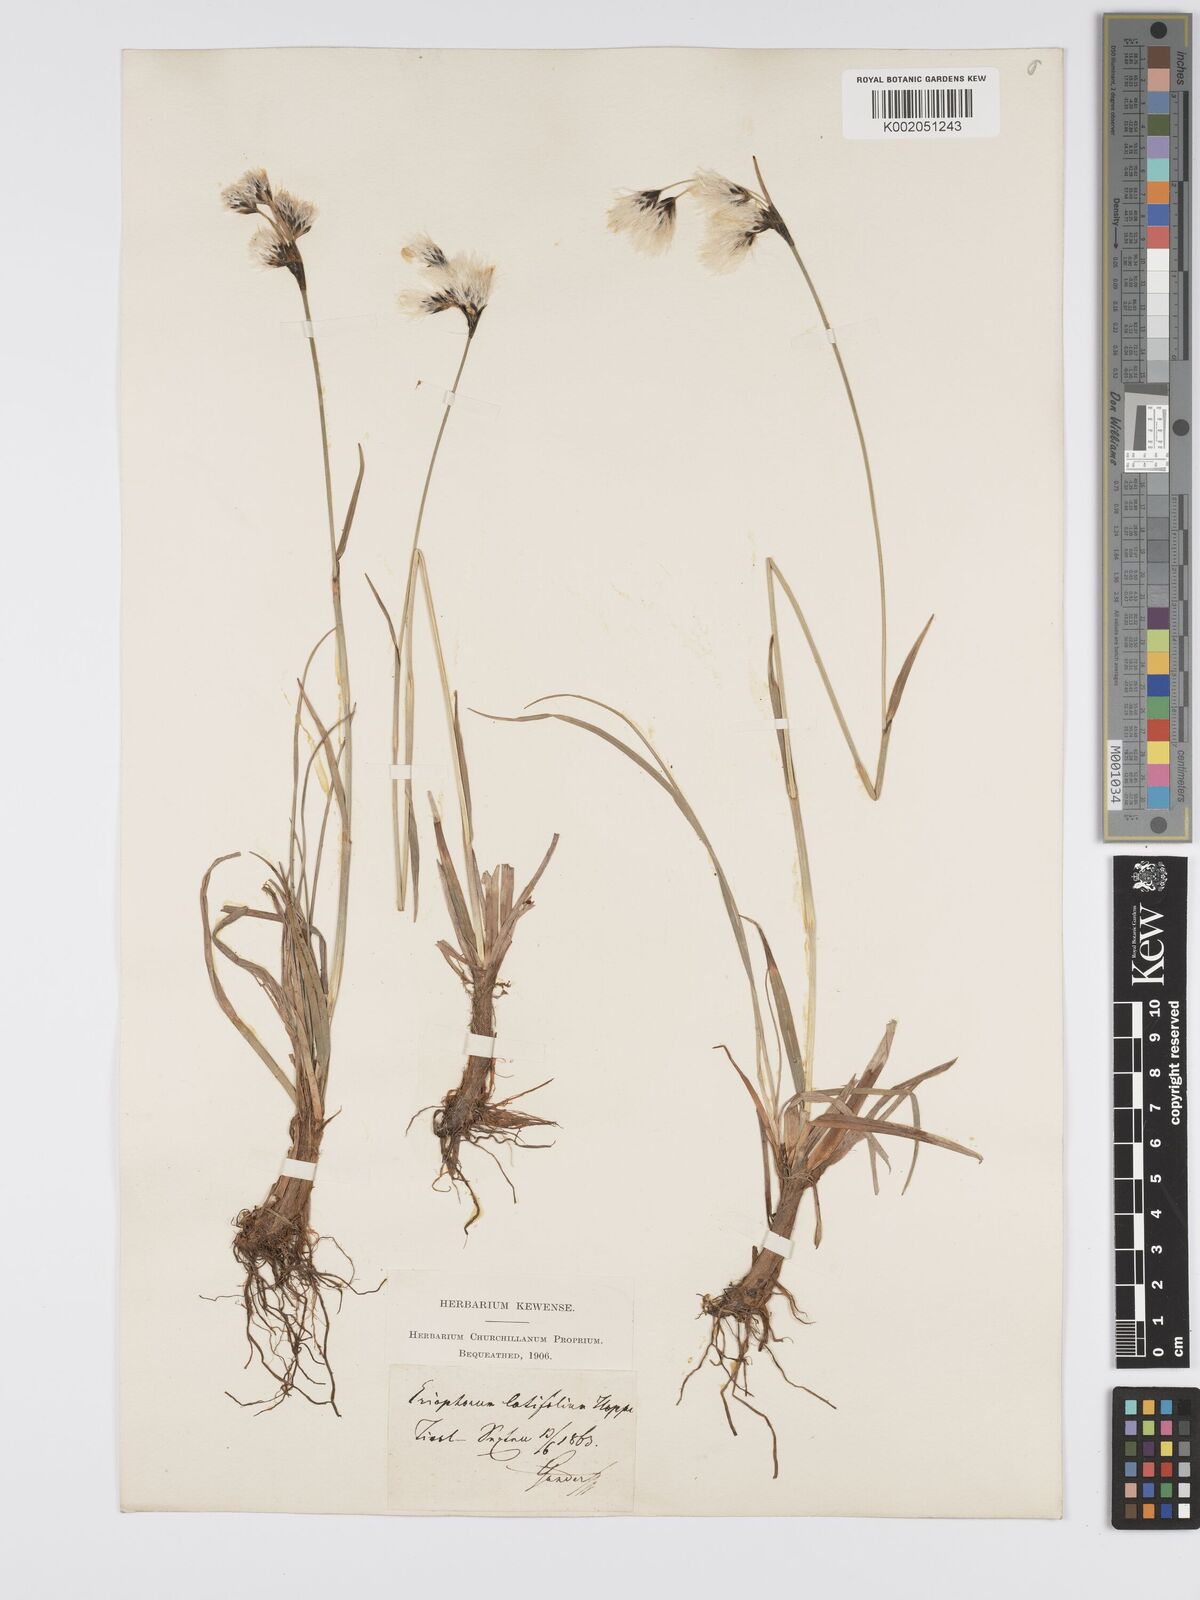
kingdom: Plantae
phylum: Tracheophyta
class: Liliopsida
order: Poales
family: Cyperaceae
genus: Eriophorum
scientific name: Eriophorum latifolium
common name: Broad-leaved cottongrass
